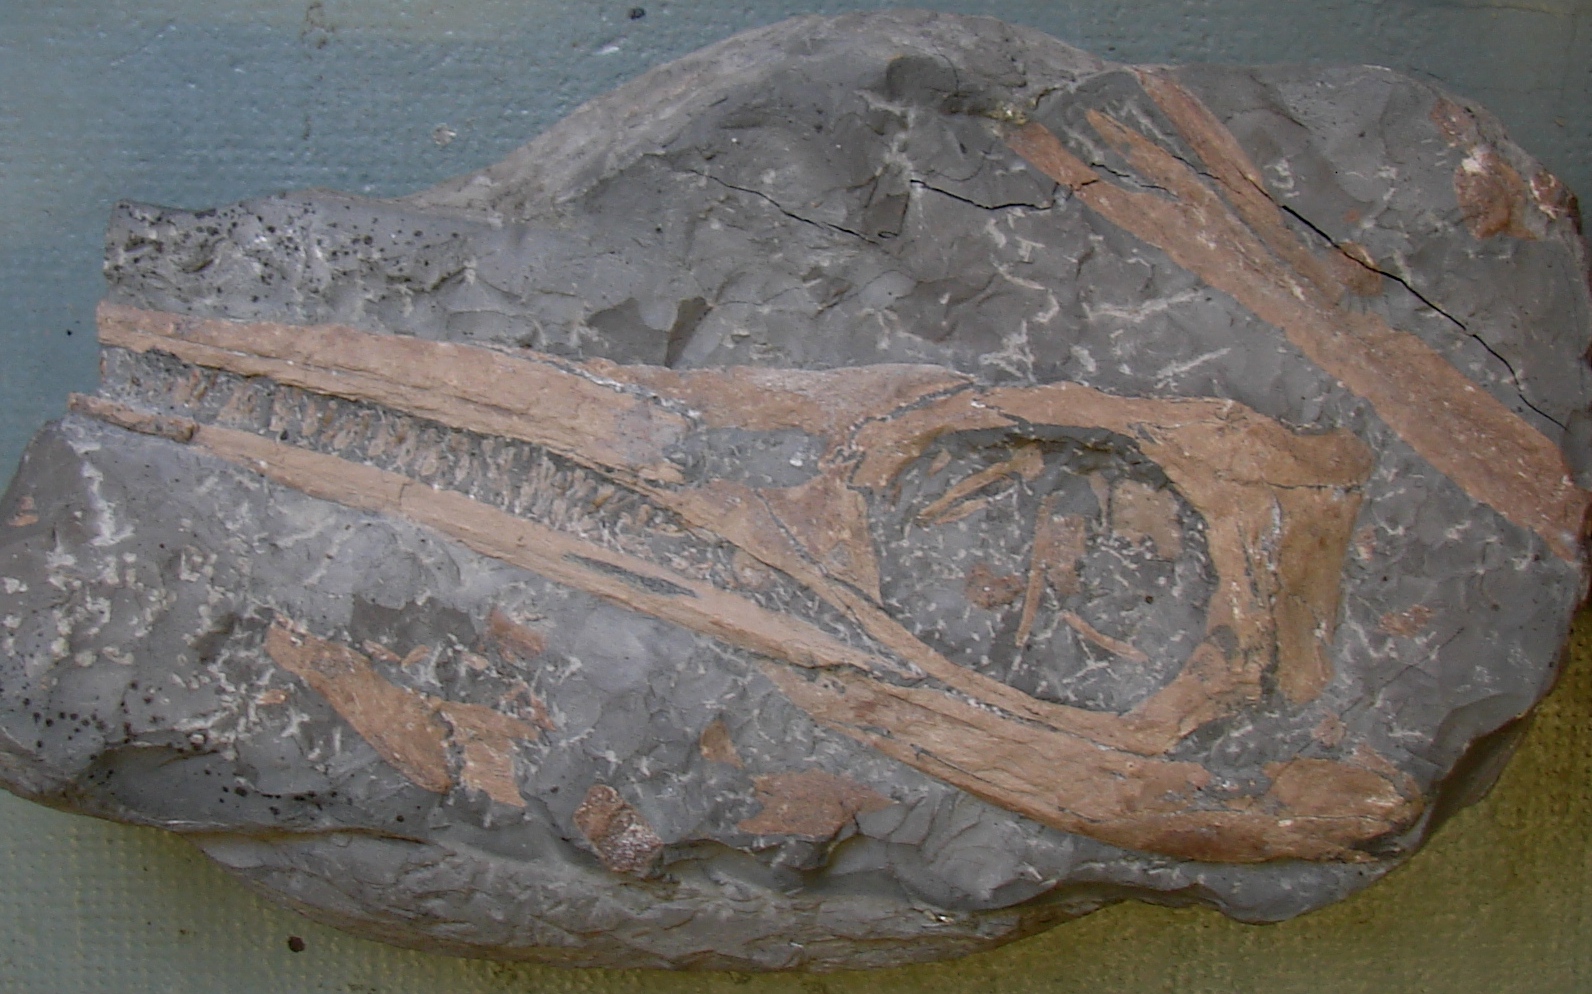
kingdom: Animalia
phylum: Chordata
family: Stenopterygiidae
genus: Stenopterygius
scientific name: Stenopterygius longifrons
